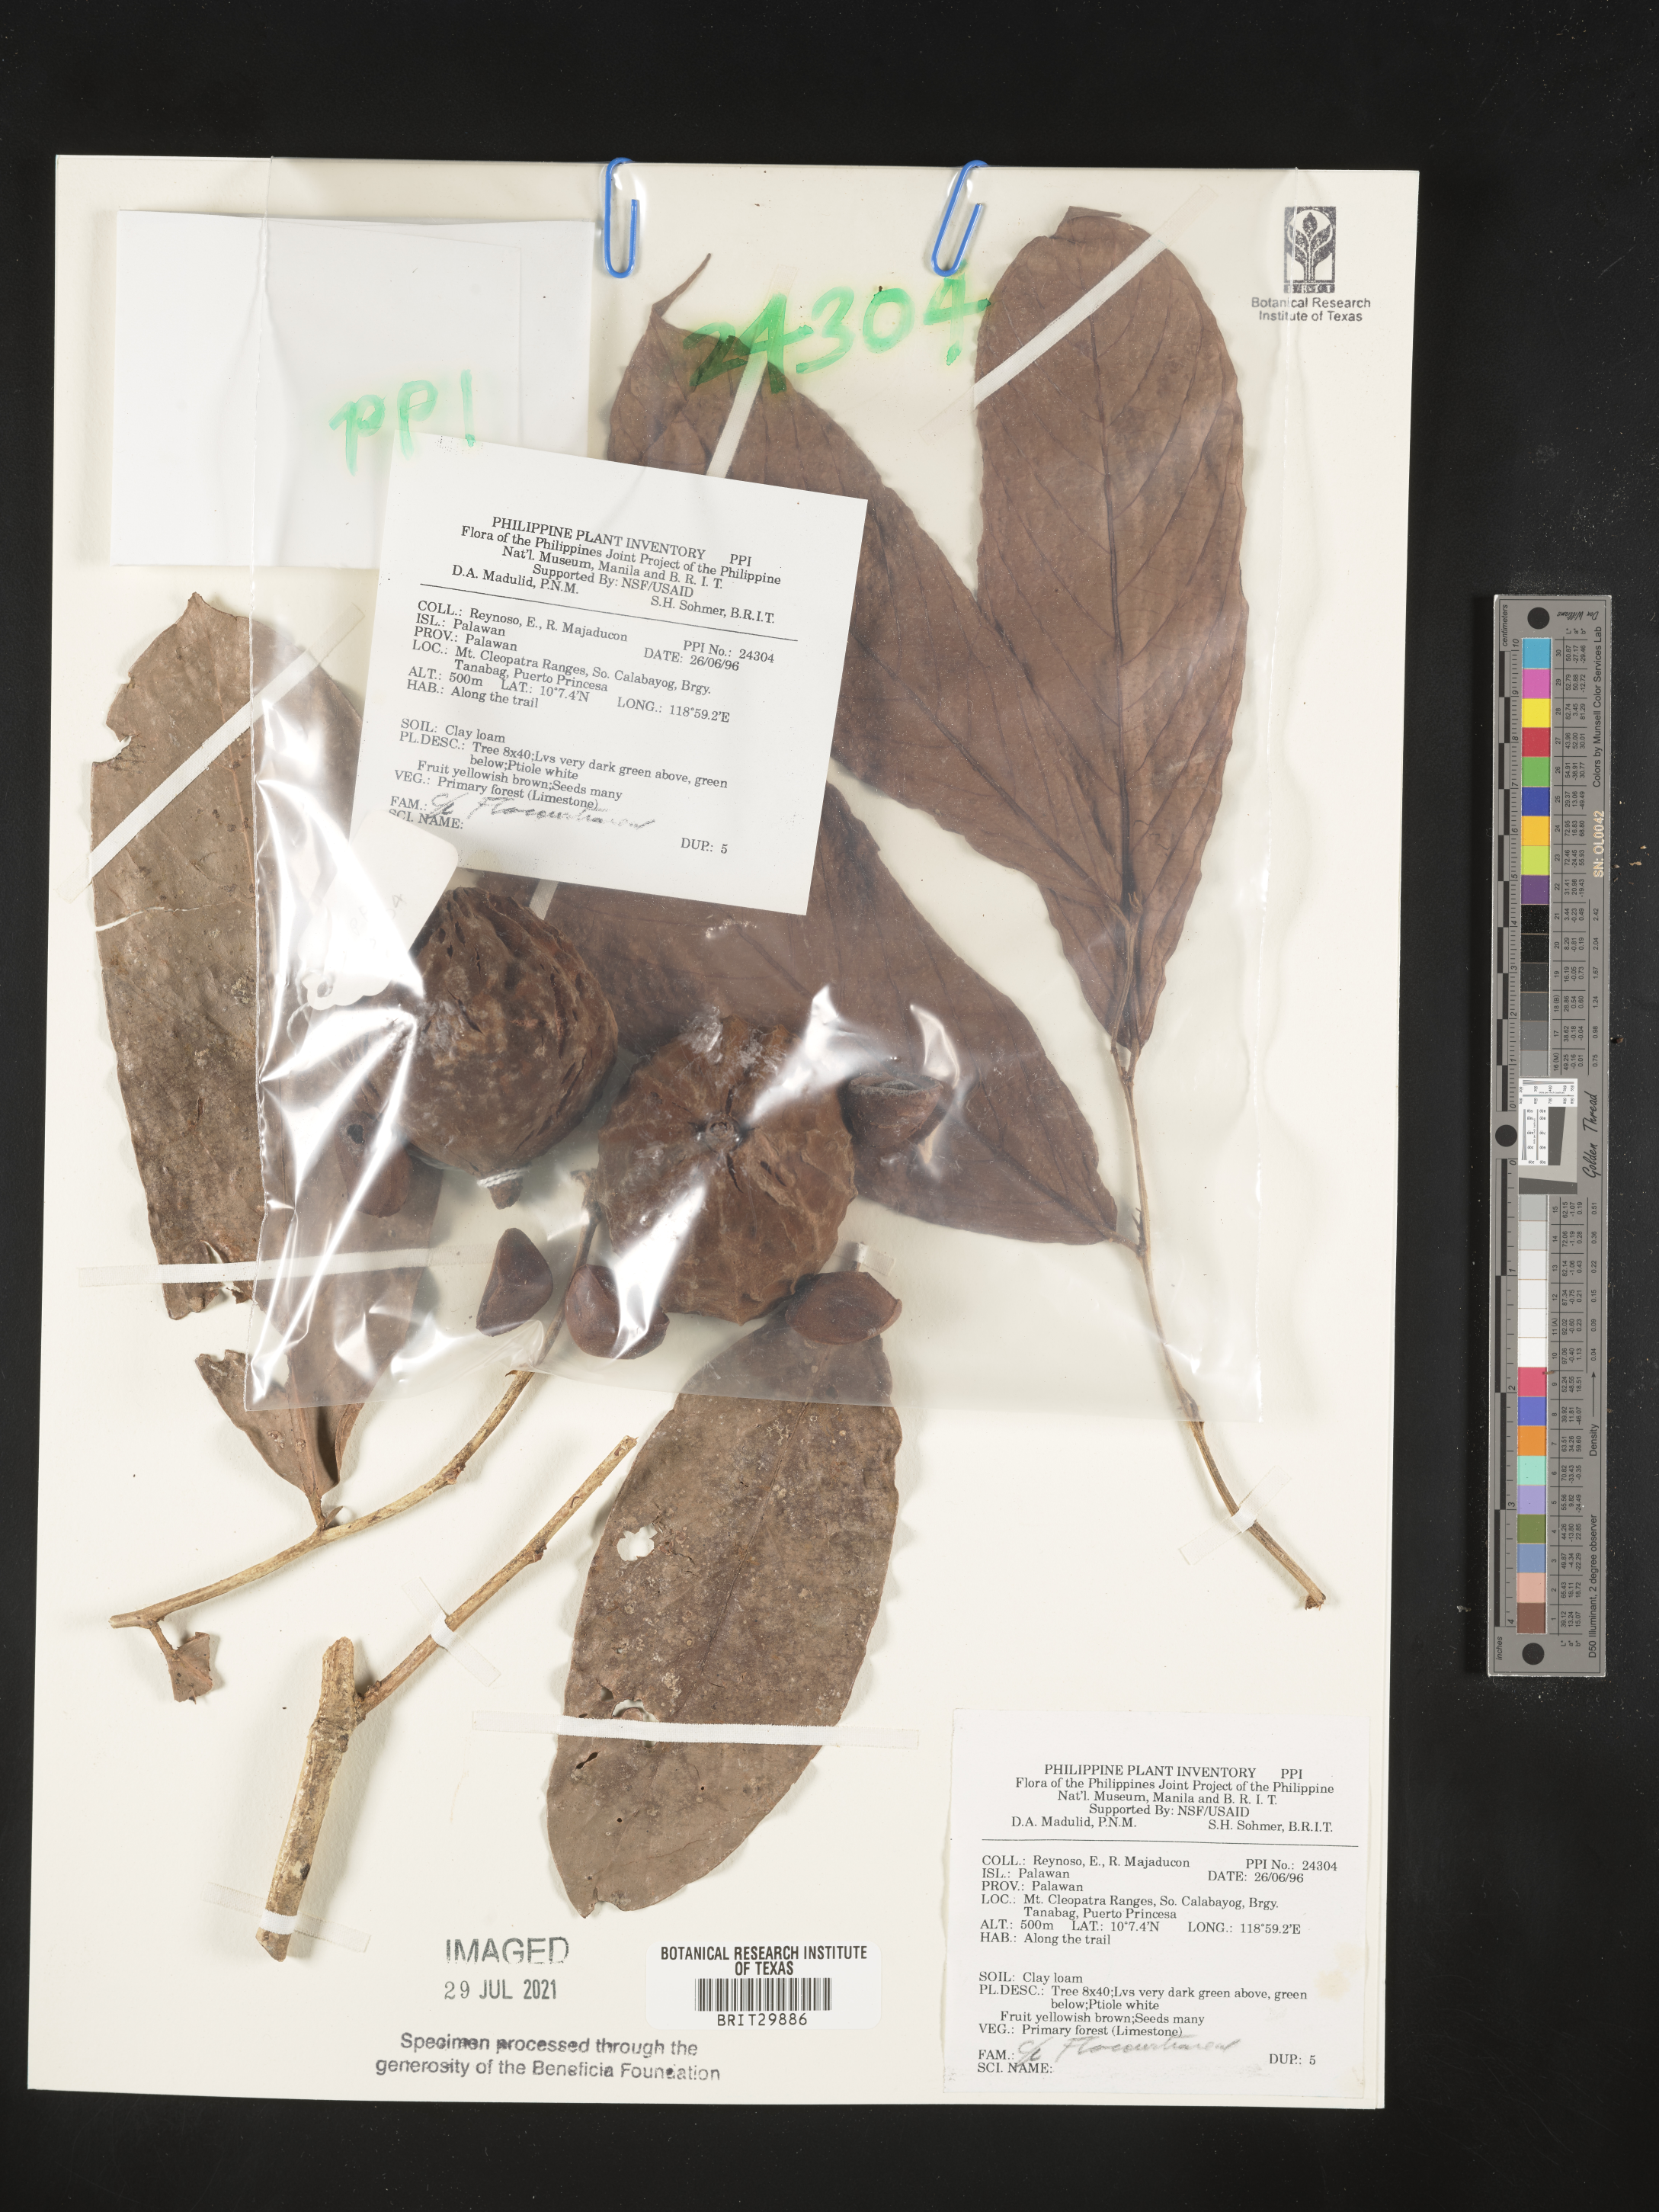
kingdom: Plantae
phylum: Tracheophyta
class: Magnoliopsida
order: Malpighiales
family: Flacourtiaceae
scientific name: Flacourtiaceae
